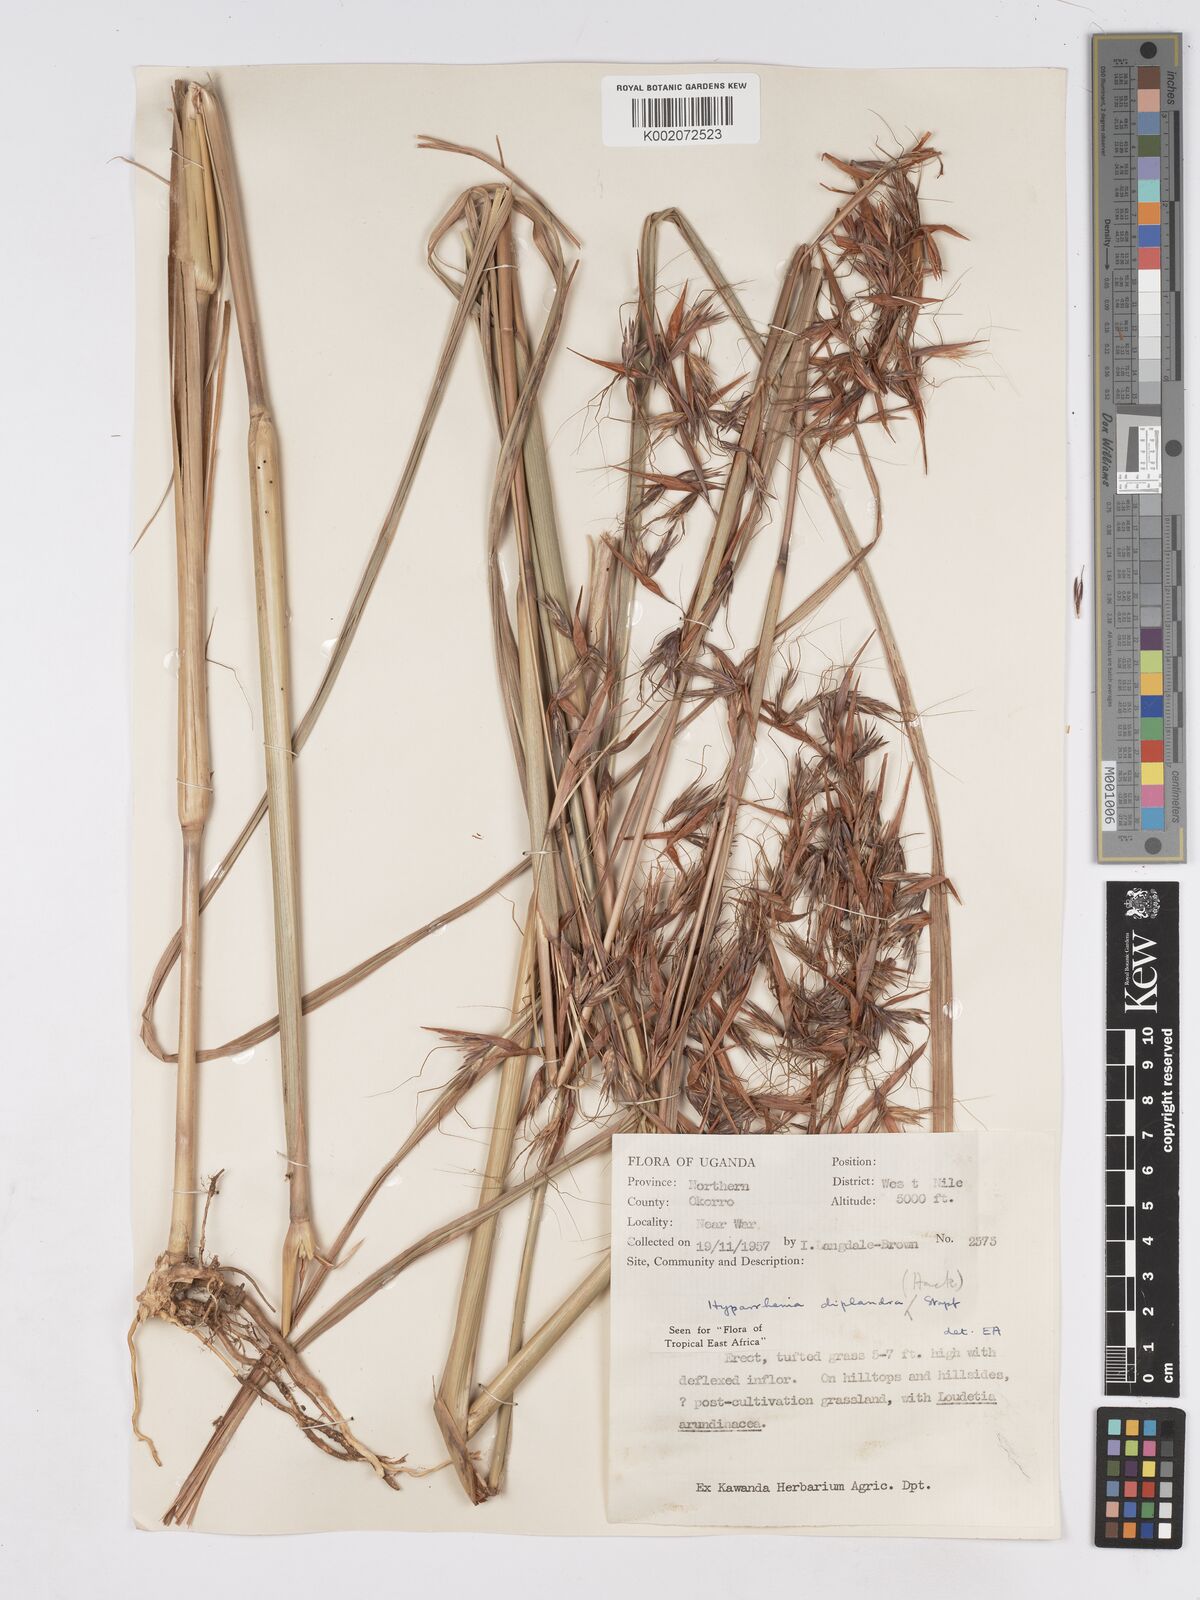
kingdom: Plantae
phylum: Tracheophyta
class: Liliopsida
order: Poales
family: Poaceae
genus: Hyparrhenia
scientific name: Hyparrhenia diplandra
